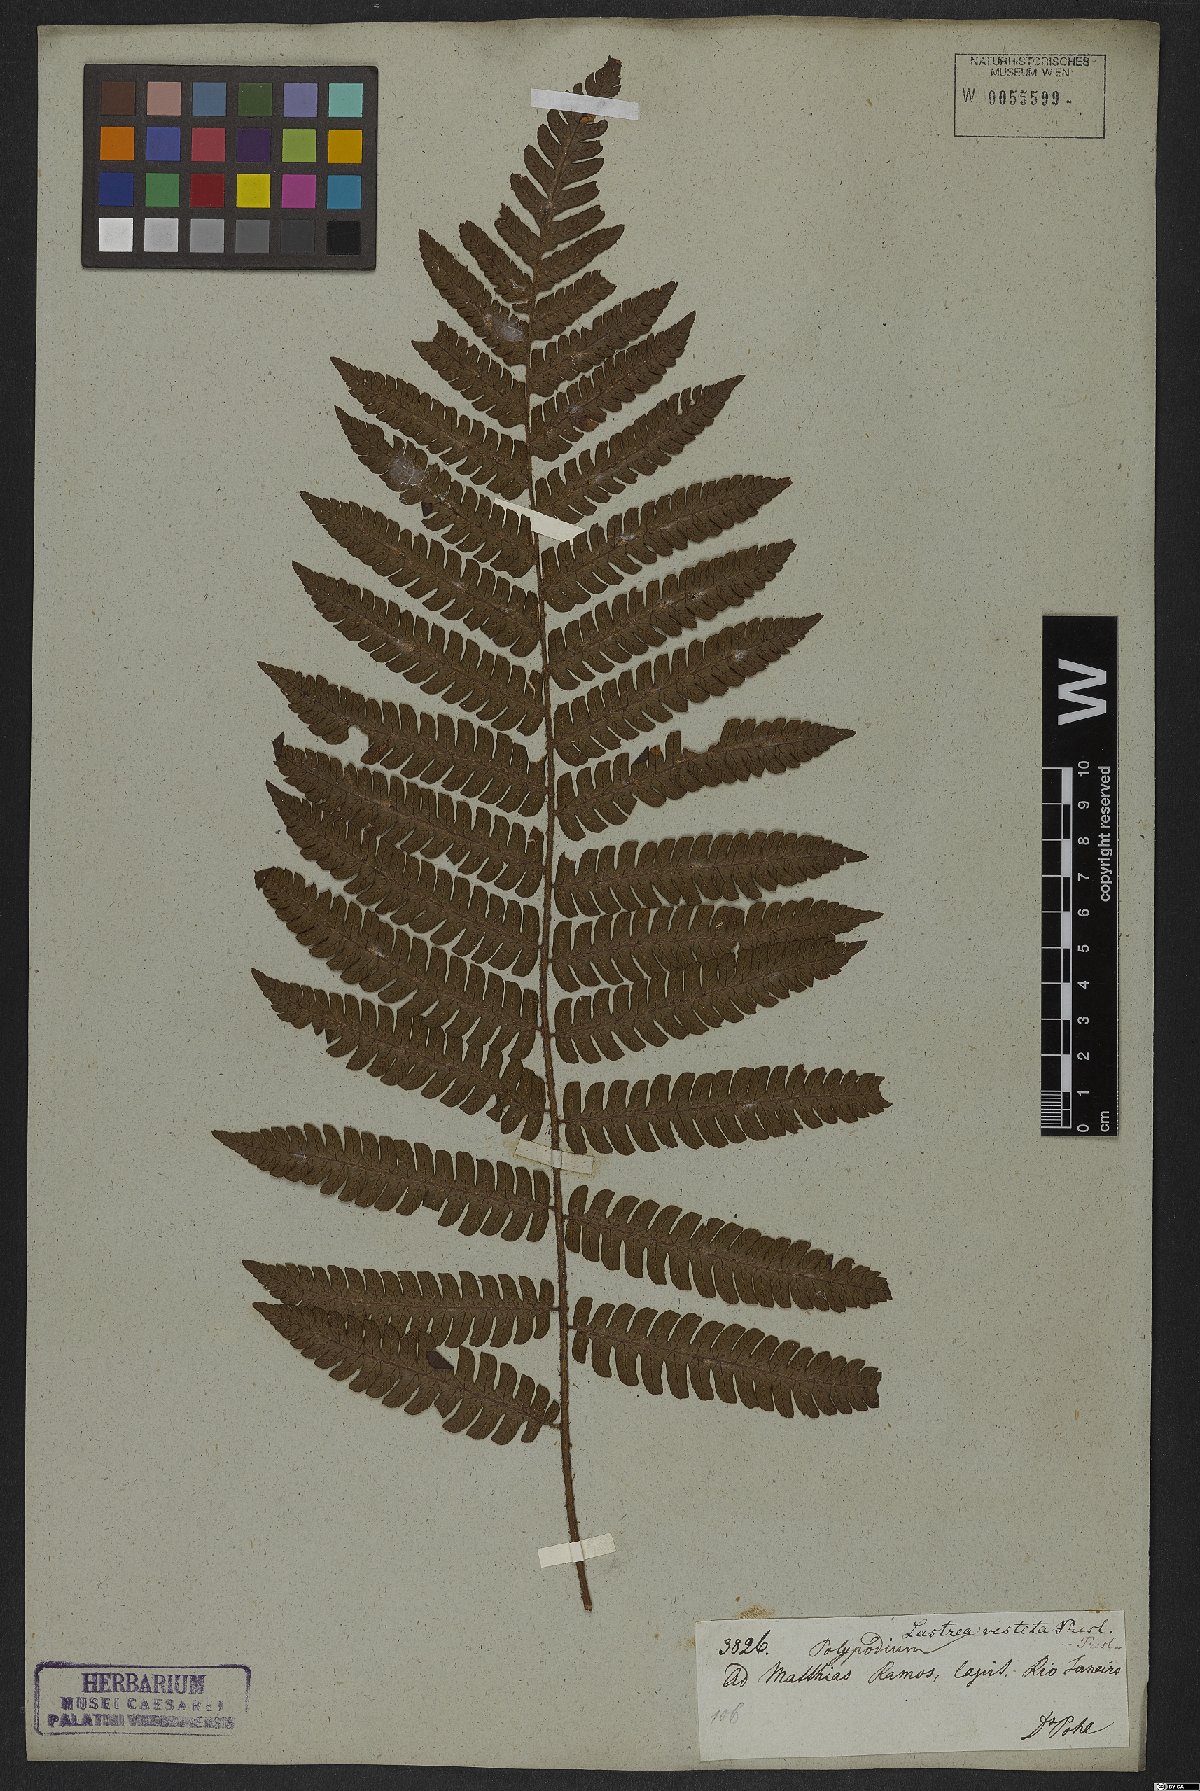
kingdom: Plantae
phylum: Tracheophyta
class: Polypodiopsida
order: Polypodiales
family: Thelypteridaceae
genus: Glaphyropteridopsis
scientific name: Glaphyropteridopsis erubescens
